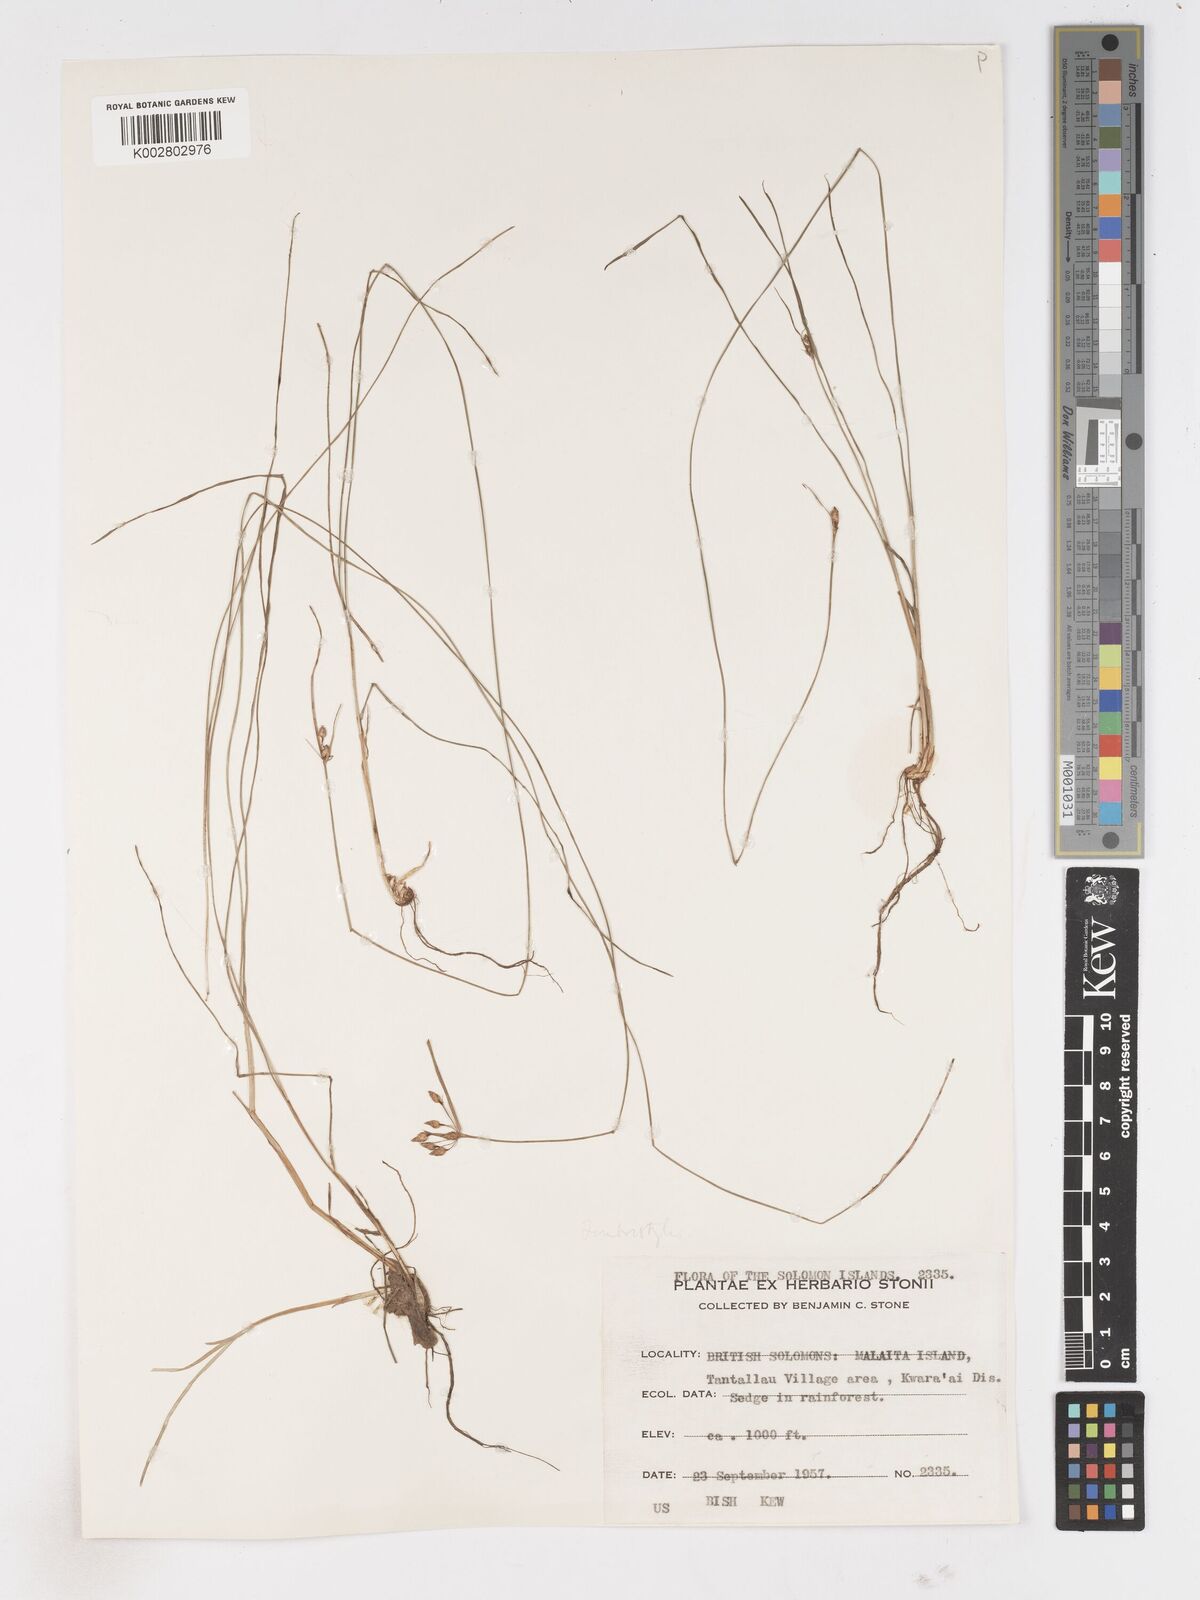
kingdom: Plantae
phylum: Tracheophyta
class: Liliopsida
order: Poales
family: Cyperaceae
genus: Fimbristylis
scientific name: Fimbristylis dichotoma
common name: Forked fimbry
